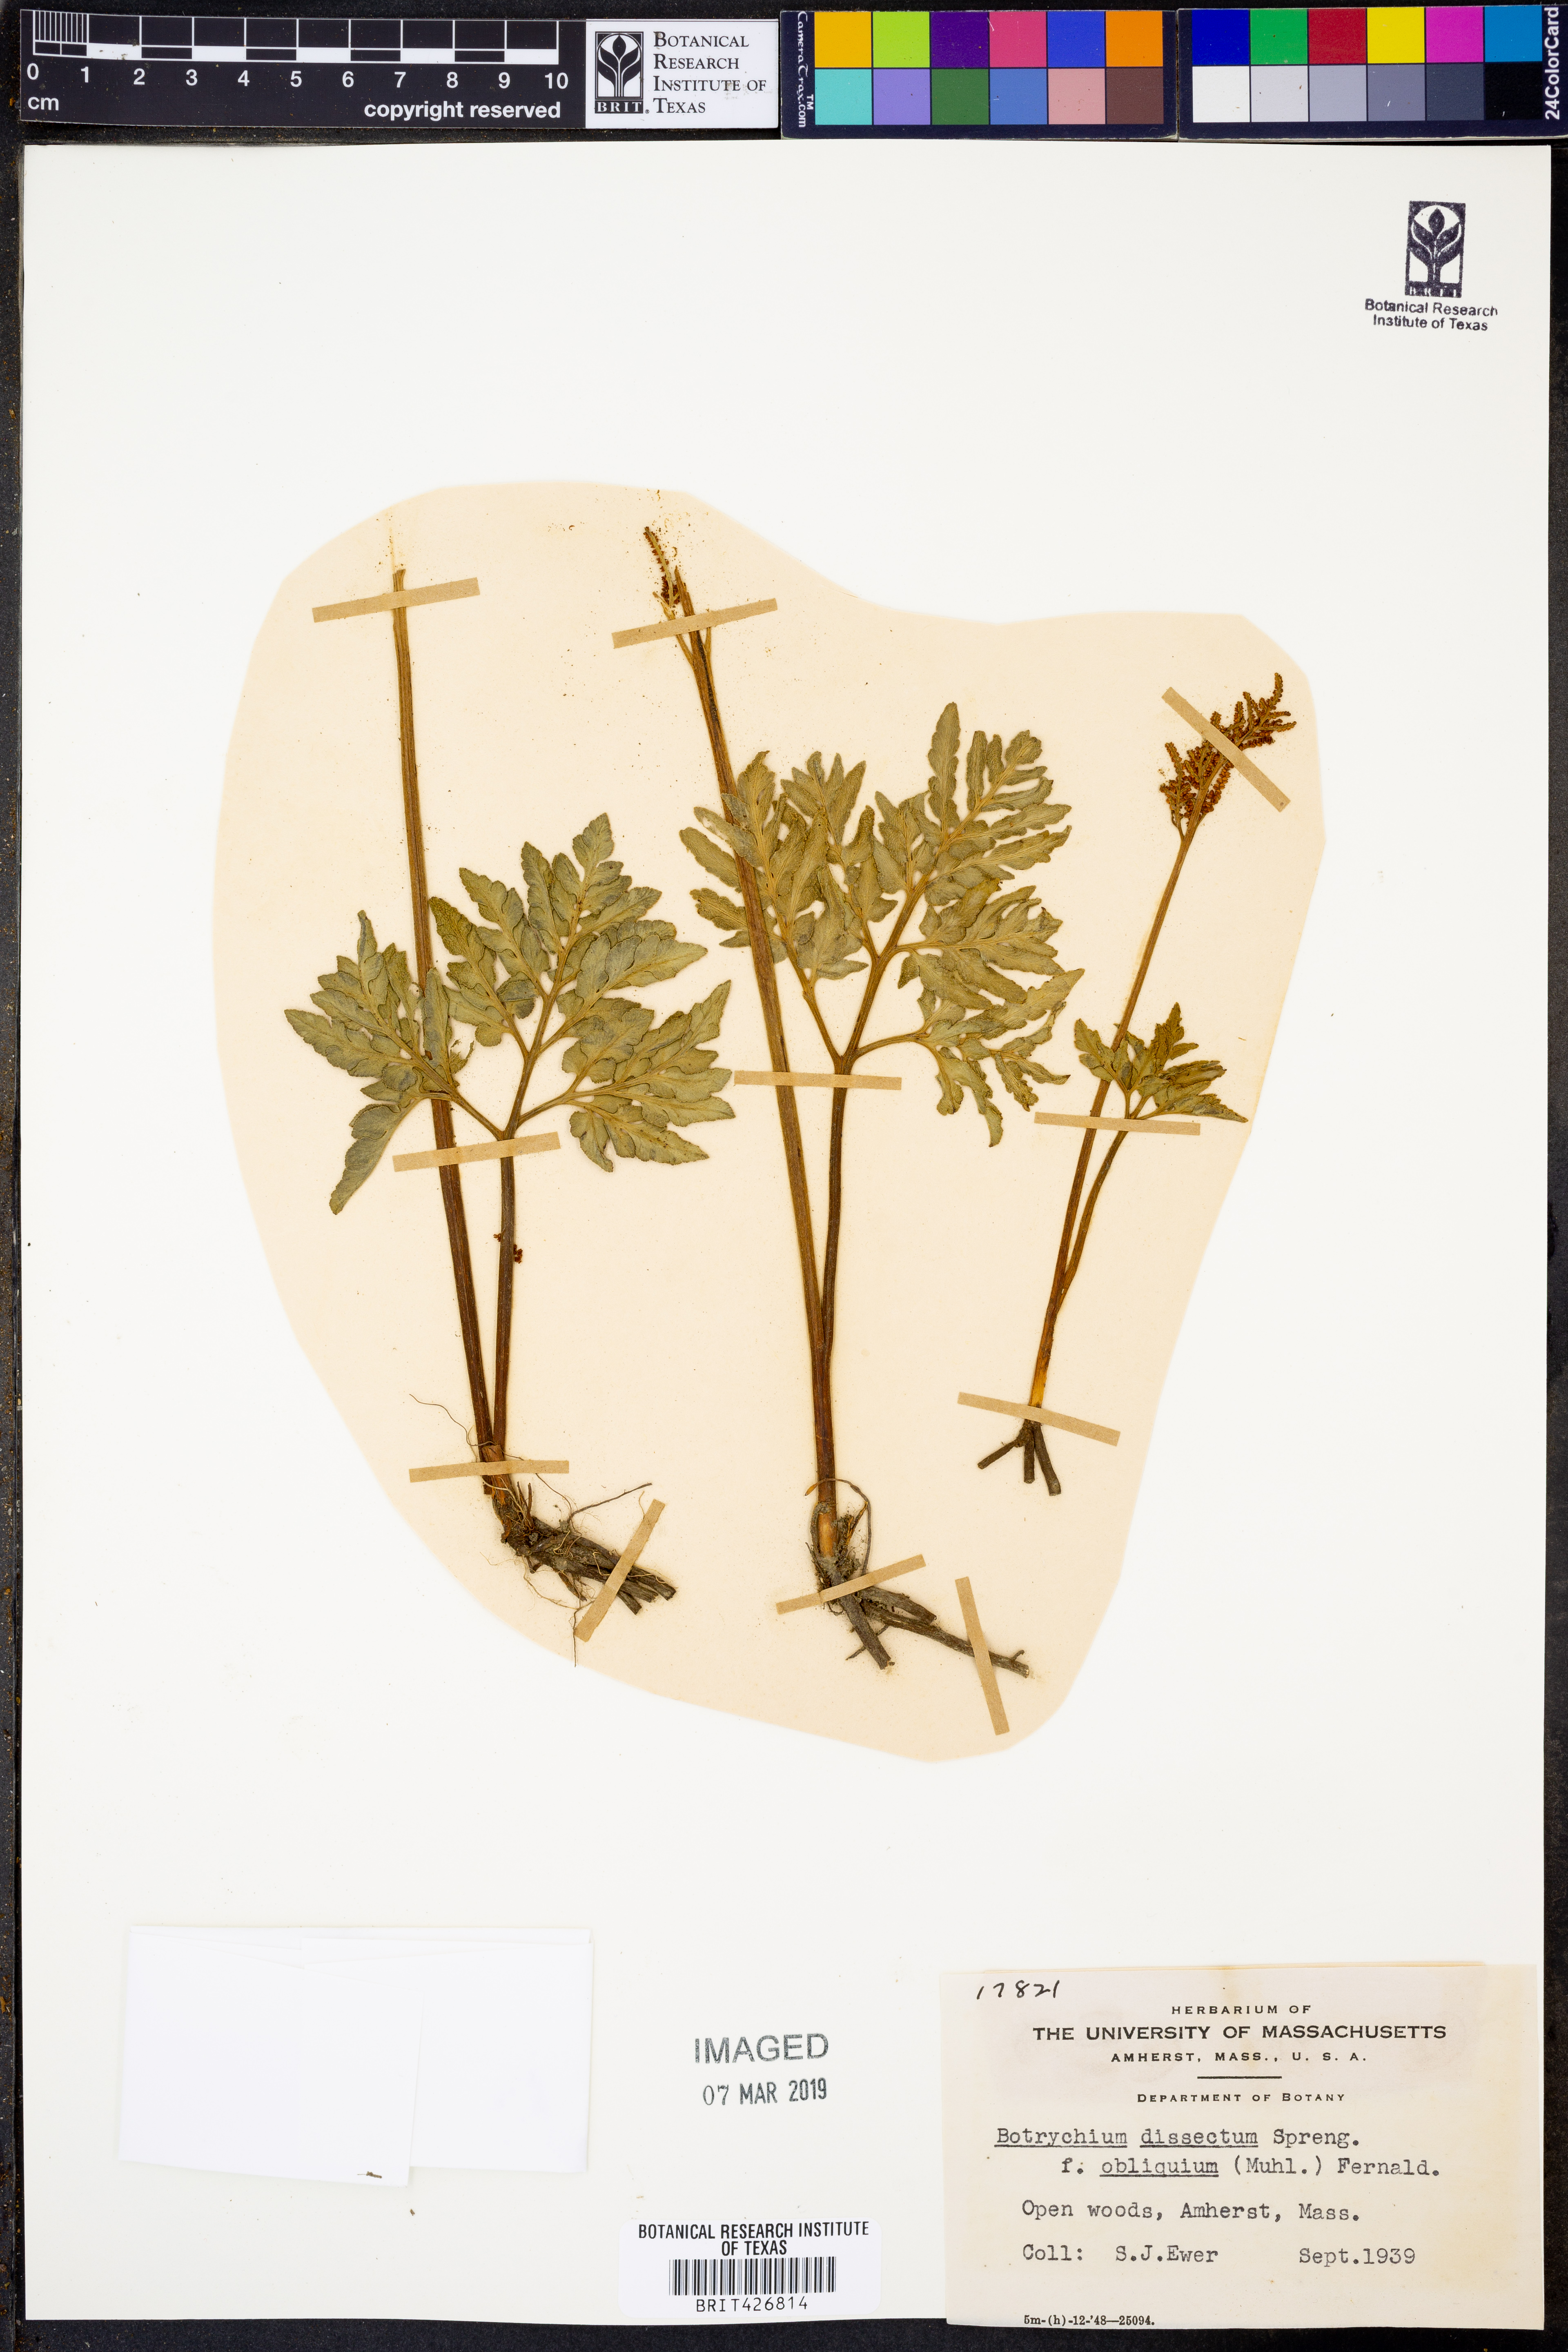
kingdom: Plantae
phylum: Tracheophyta
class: Polypodiopsida
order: Ophioglossales
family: Ophioglossaceae
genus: Sceptridium
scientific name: Sceptridium dissectum
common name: Cut-leaved grapefern
